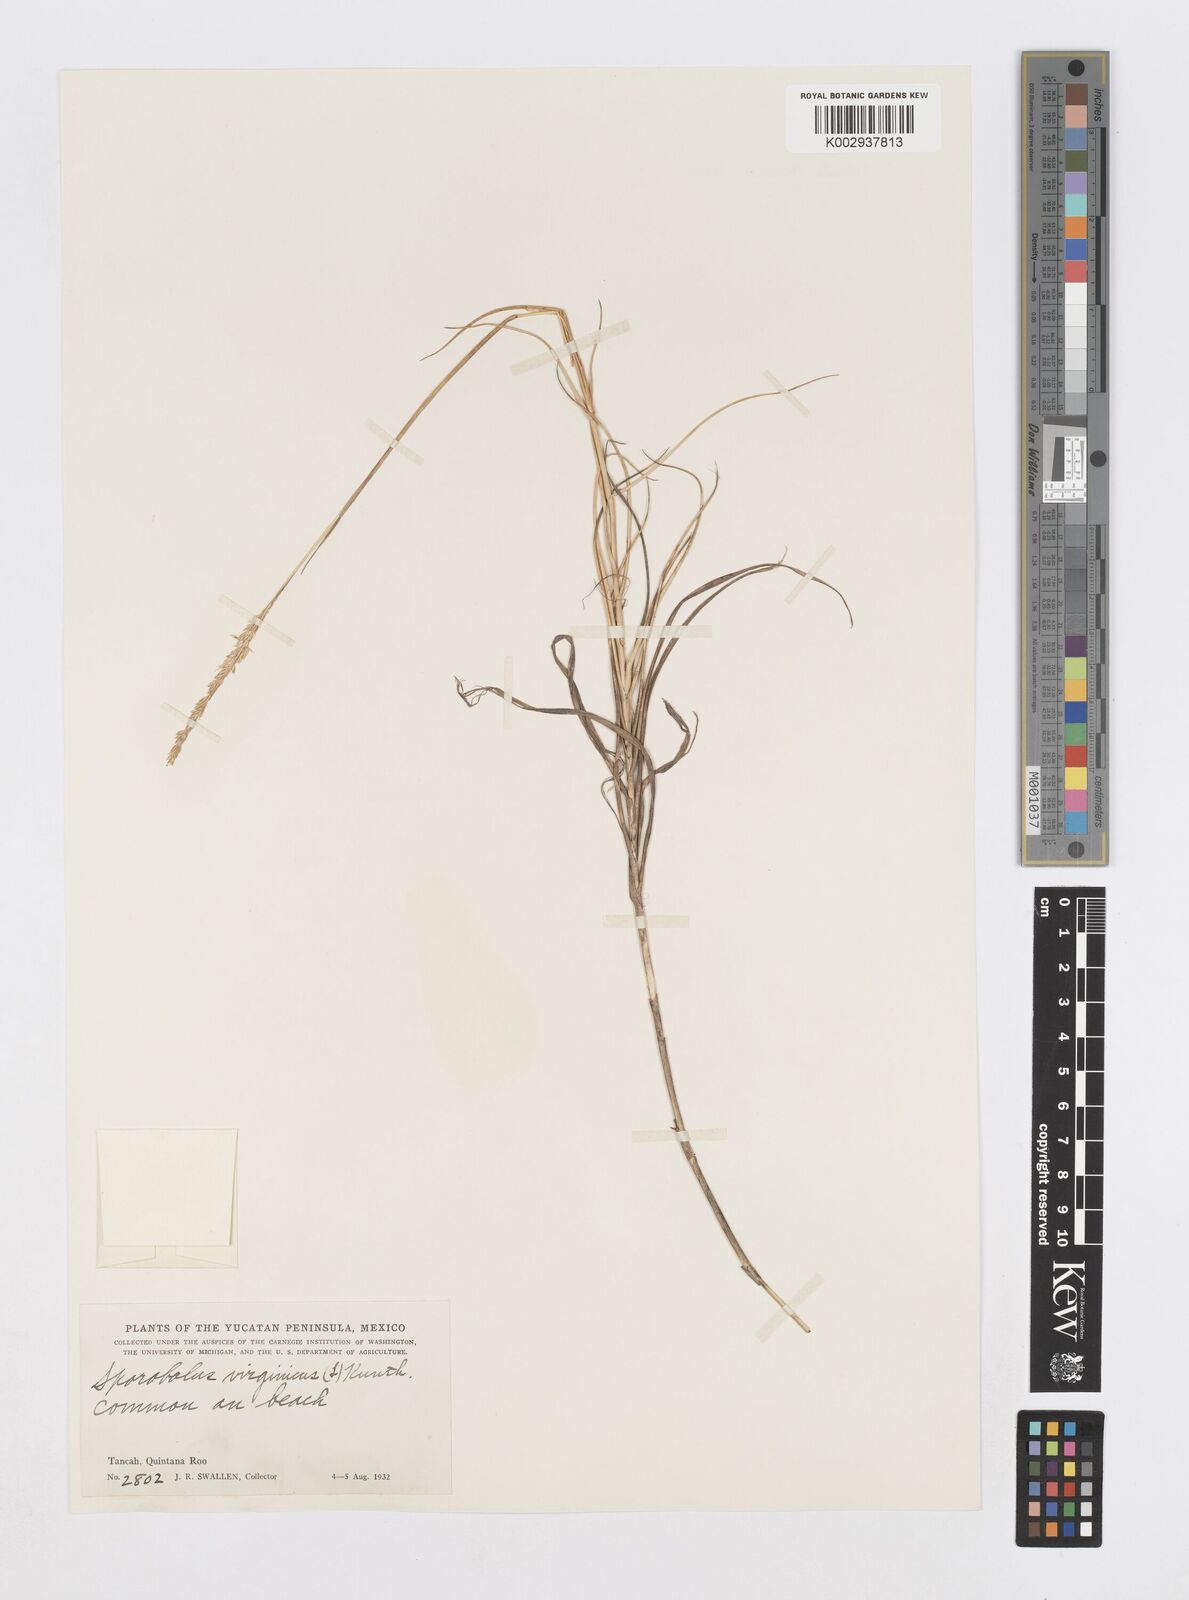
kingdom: Plantae
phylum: Tracheophyta
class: Liliopsida
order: Poales
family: Poaceae
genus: Sporobolus
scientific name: Sporobolus virginicus
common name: Beach dropseed
